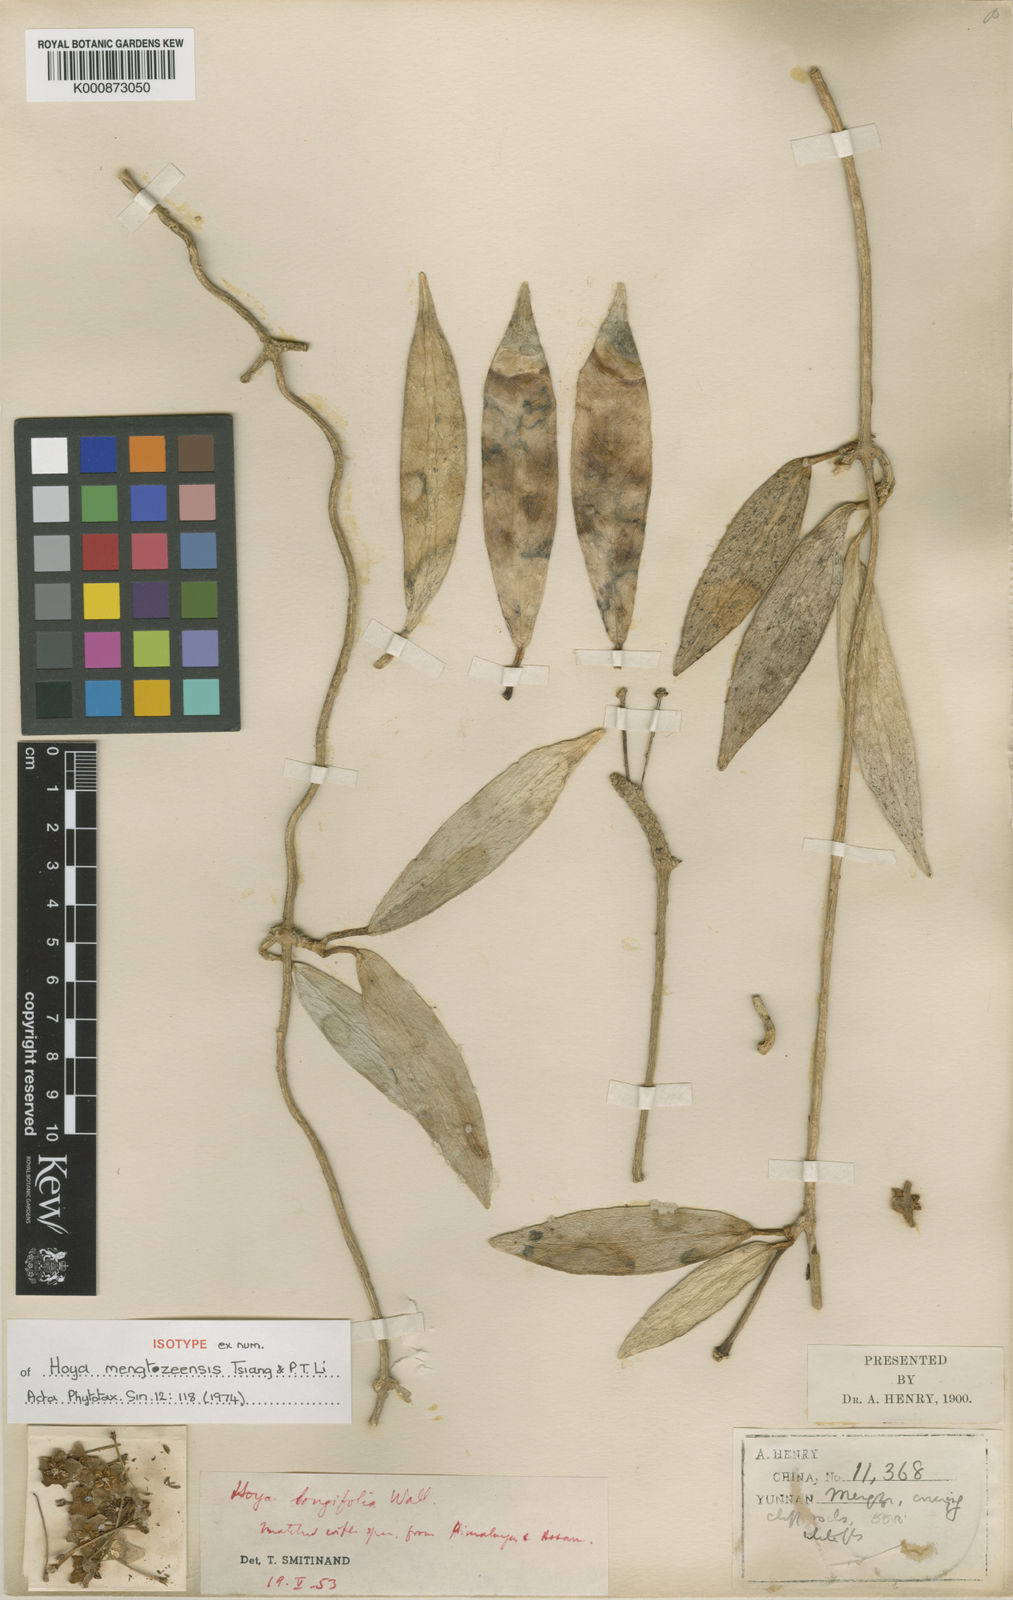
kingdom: Plantae
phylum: Tracheophyta
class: Magnoliopsida
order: Gentianales
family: Apocynaceae
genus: Hoya
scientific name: Hoya mengtzeensis
